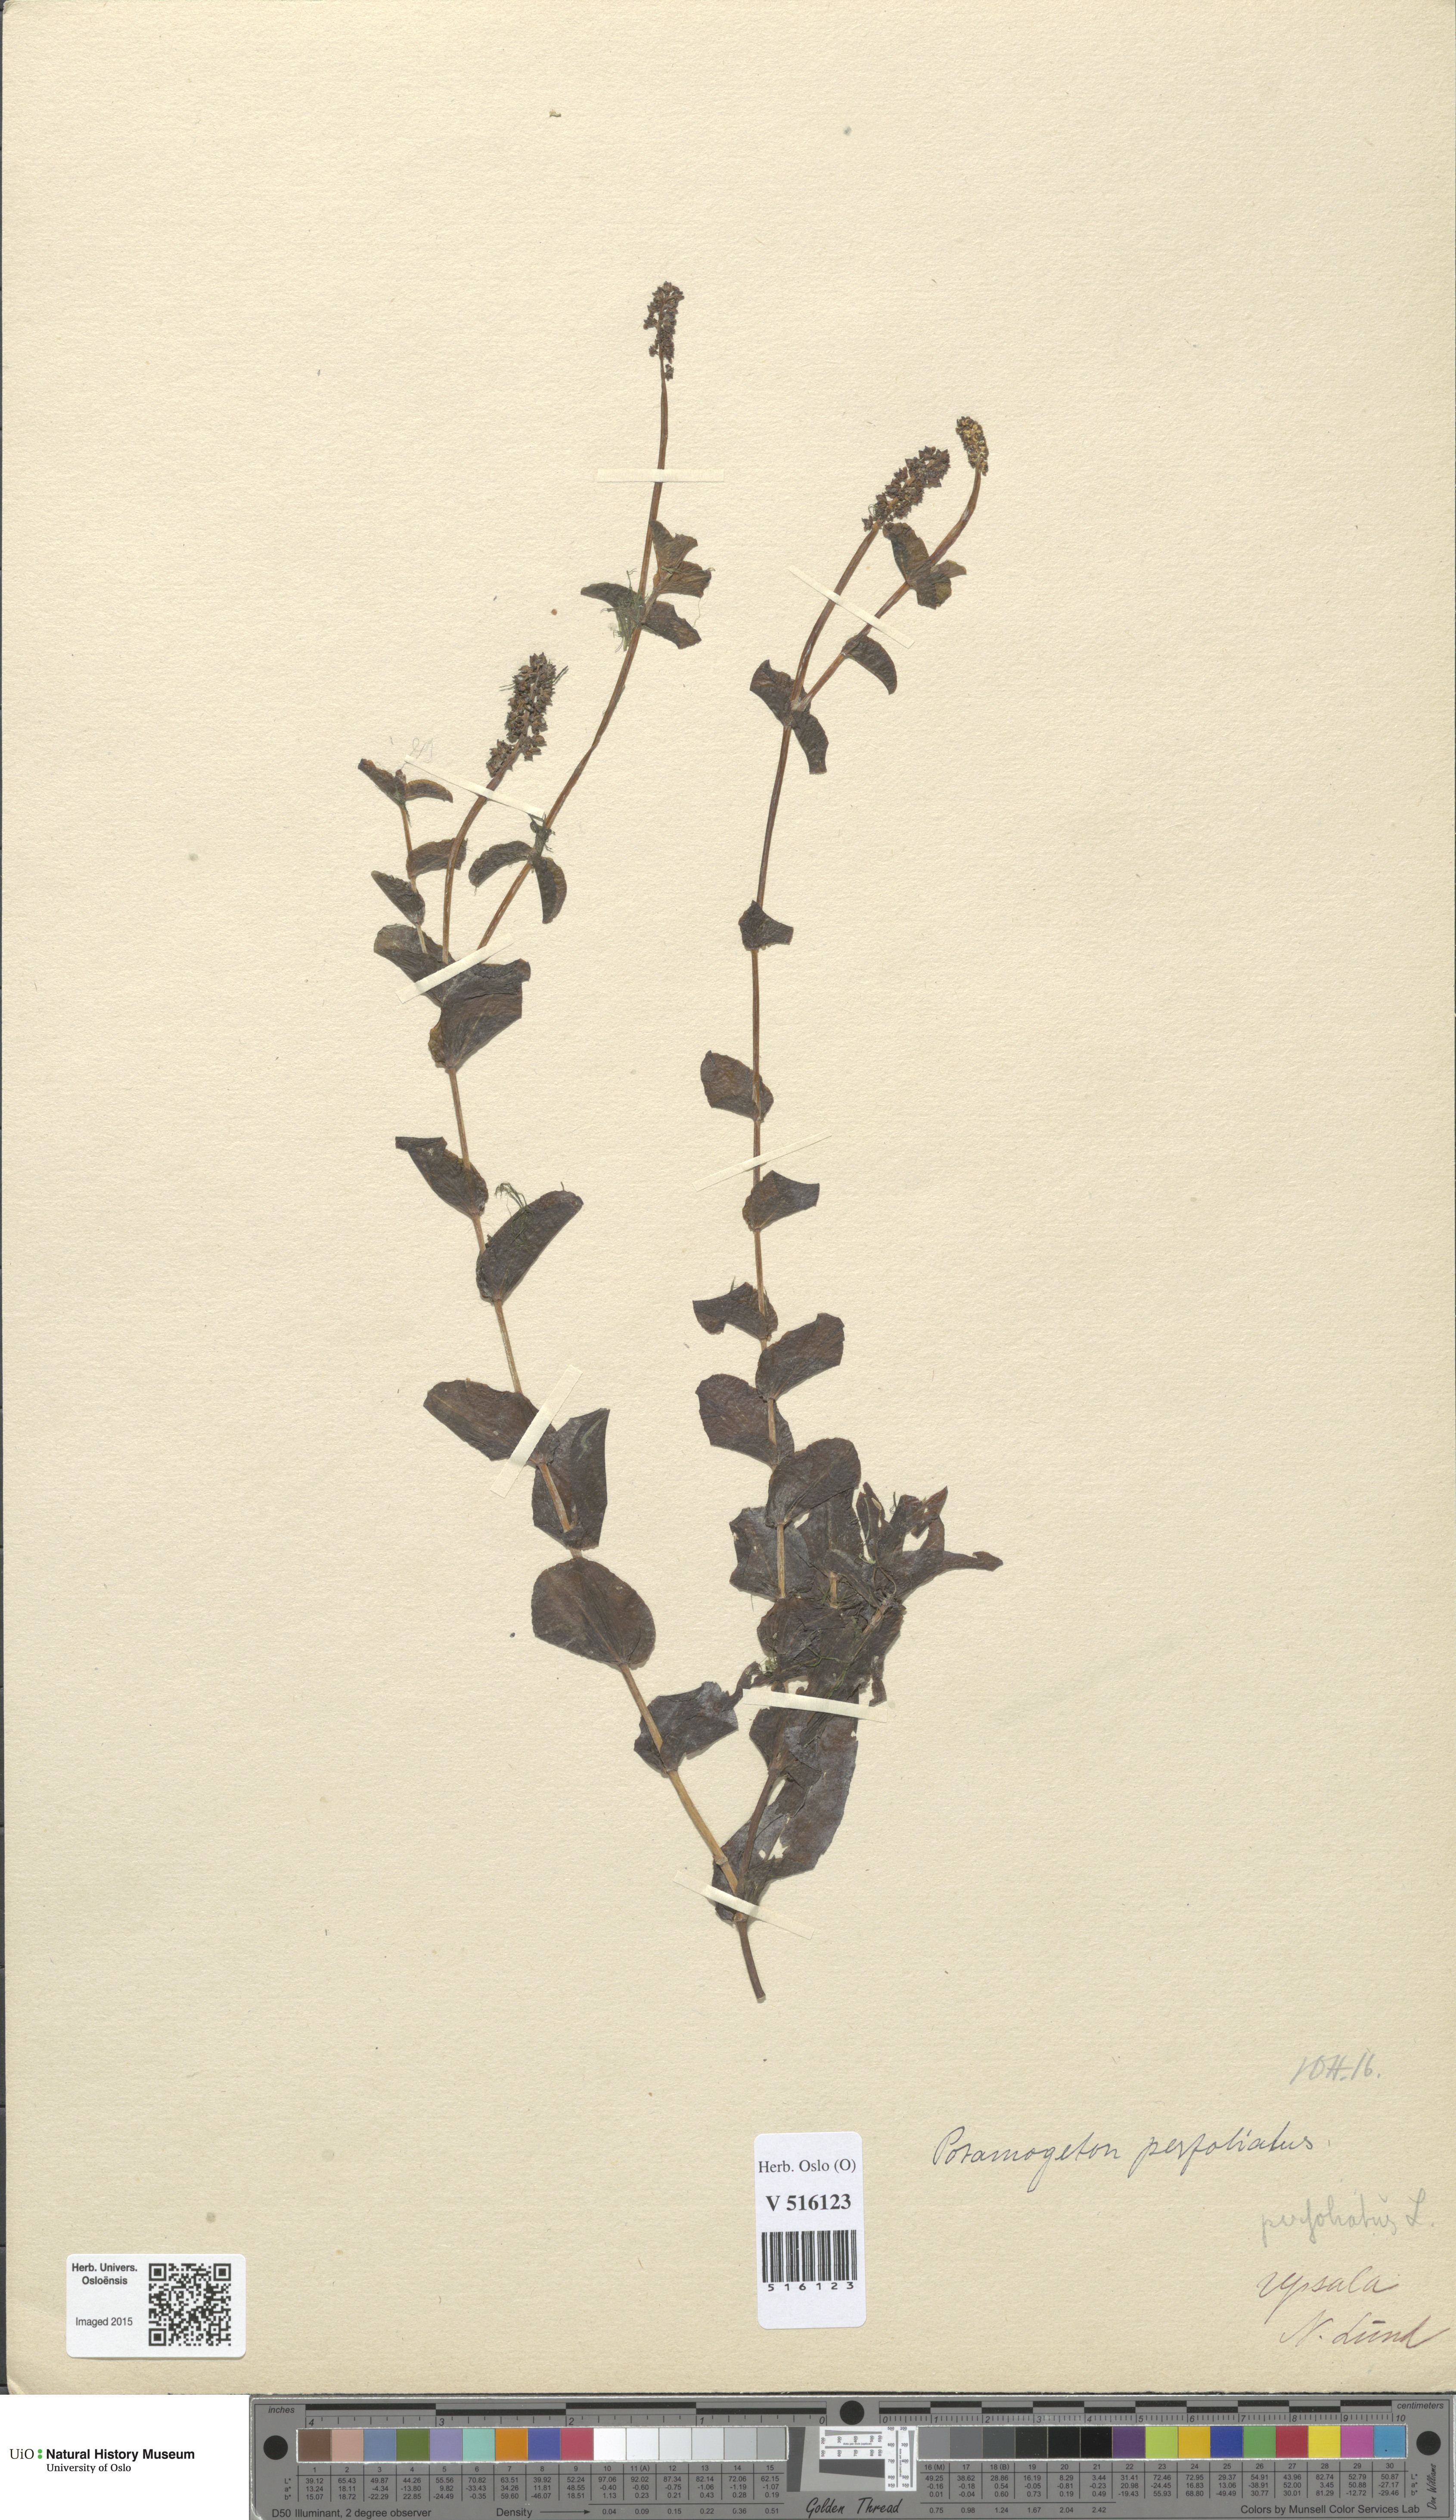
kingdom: Plantae
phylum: Tracheophyta
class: Liliopsida
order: Alismatales
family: Potamogetonaceae
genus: Potamogeton
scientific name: Potamogeton perfoliatus
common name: Perfoliate pondweed
